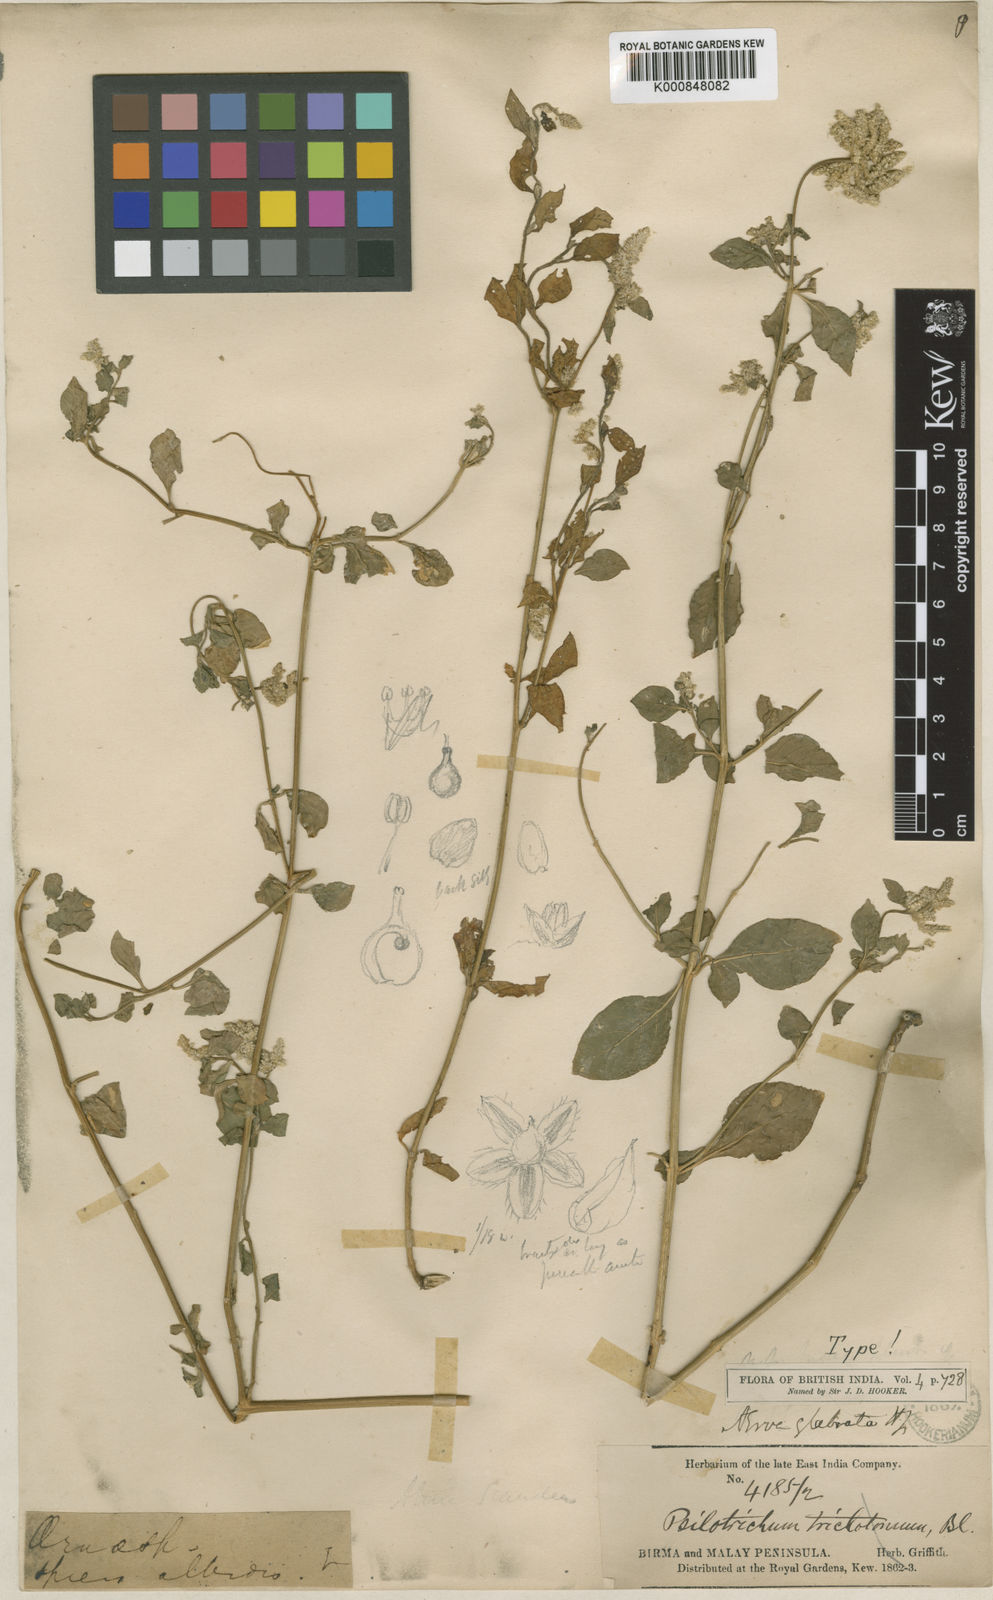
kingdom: Plantae
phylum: Tracheophyta
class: Magnoliopsida
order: Caryophyllales
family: Amaranthaceae
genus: Ouret
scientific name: Ouret glabrata
